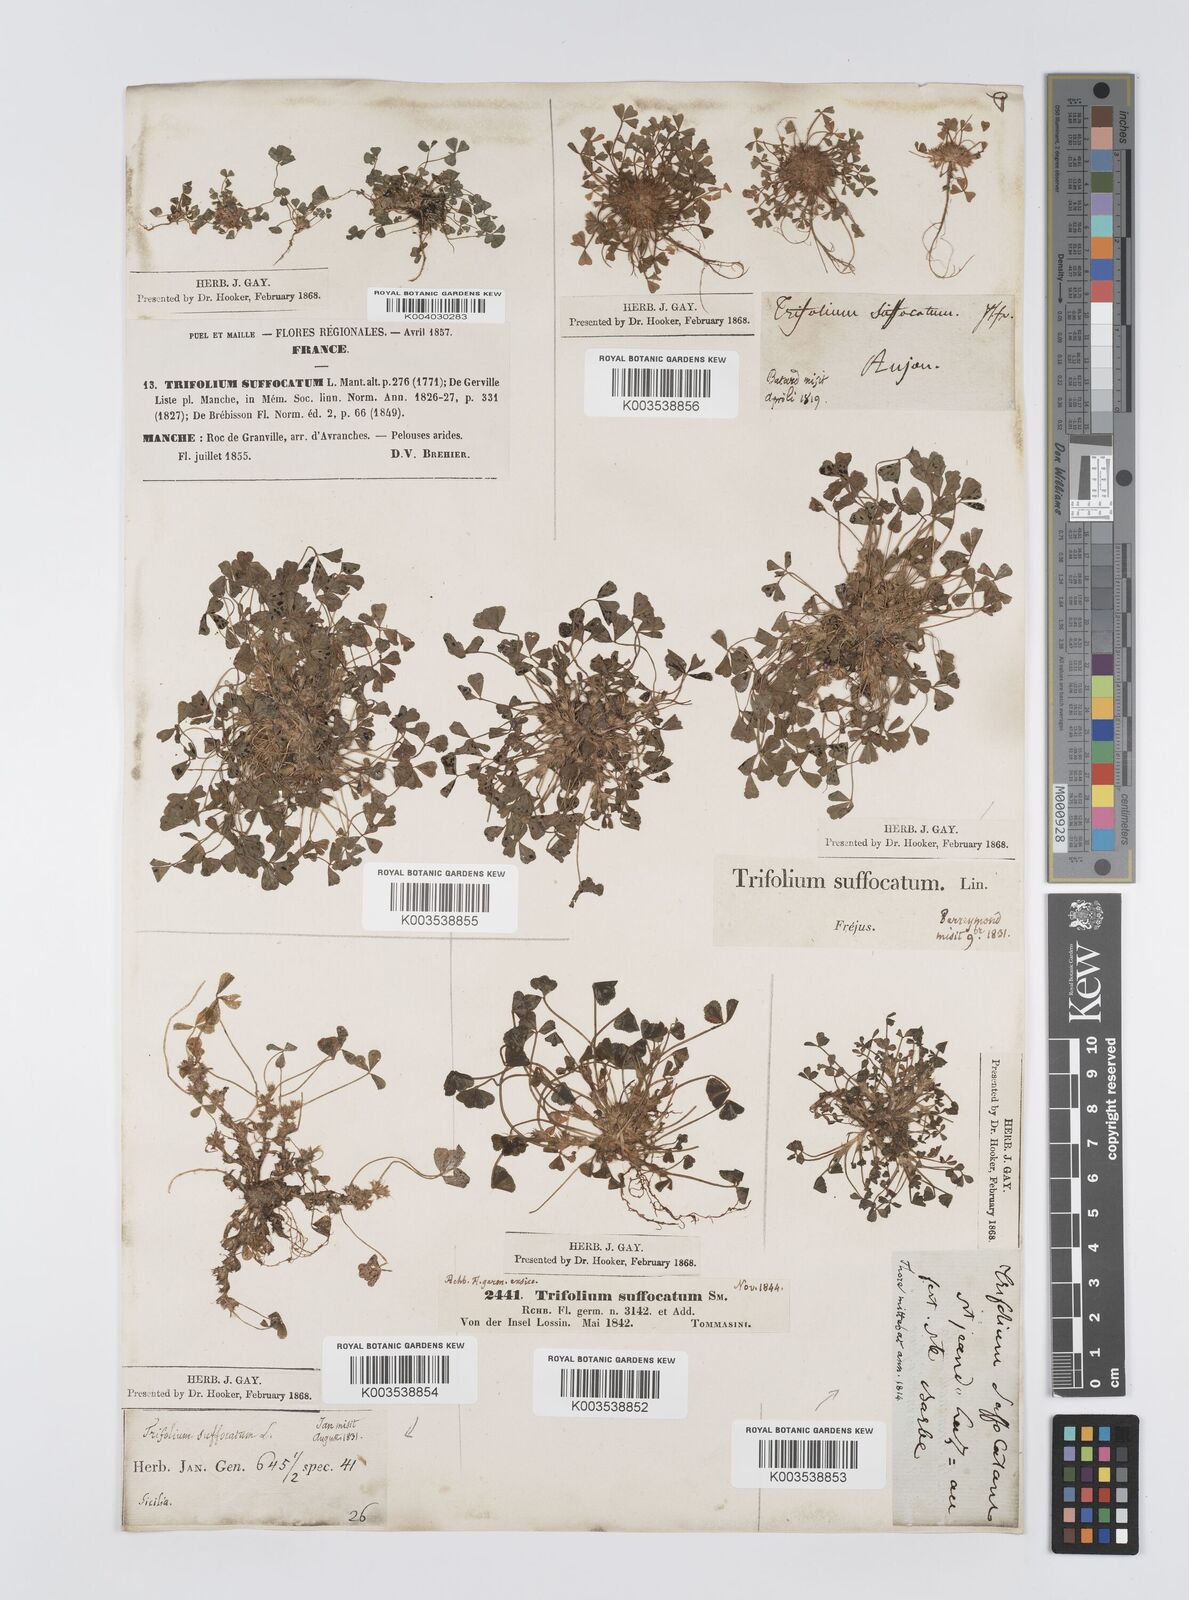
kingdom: Plantae
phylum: Tracheophyta
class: Magnoliopsida
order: Fabales
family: Fabaceae
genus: Trifolium
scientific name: Trifolium suffocatum
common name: Suffocated clover
